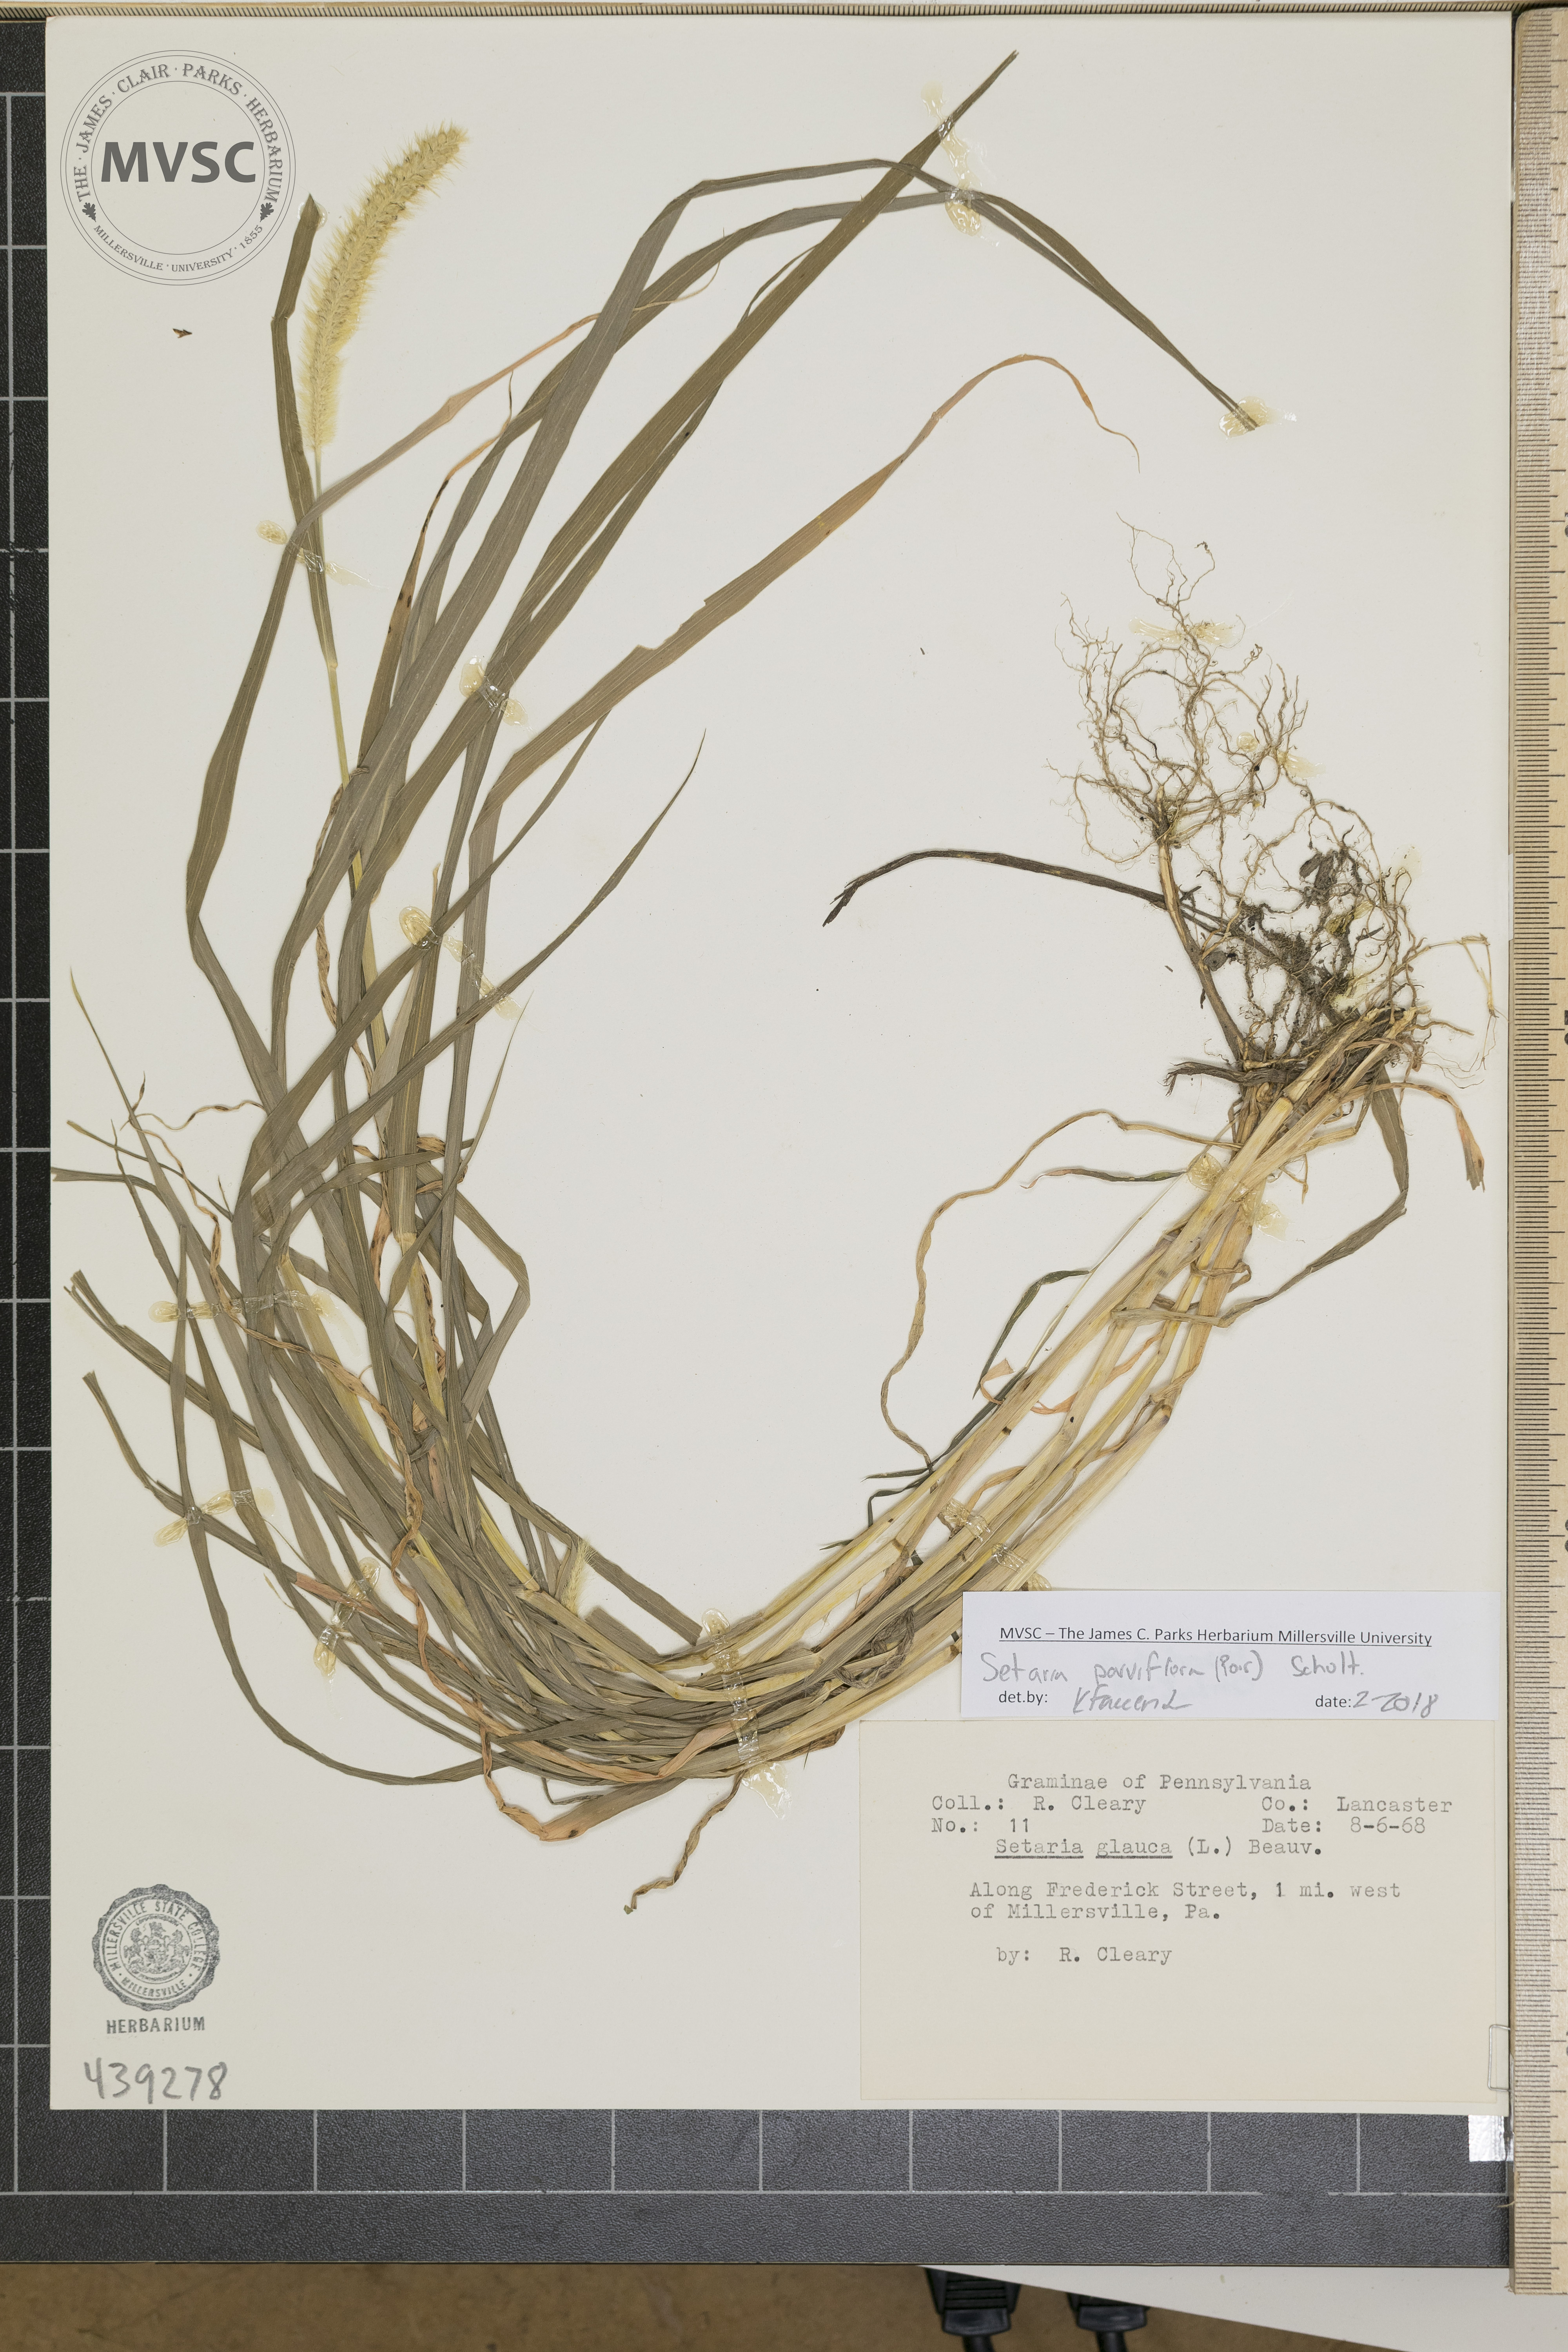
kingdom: Plantae
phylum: Tracheophyta
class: Liliopsida
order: Poales
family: Poaceae
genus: Setaria
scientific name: Setaria parviflora
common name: Knotroot bristle-grass
